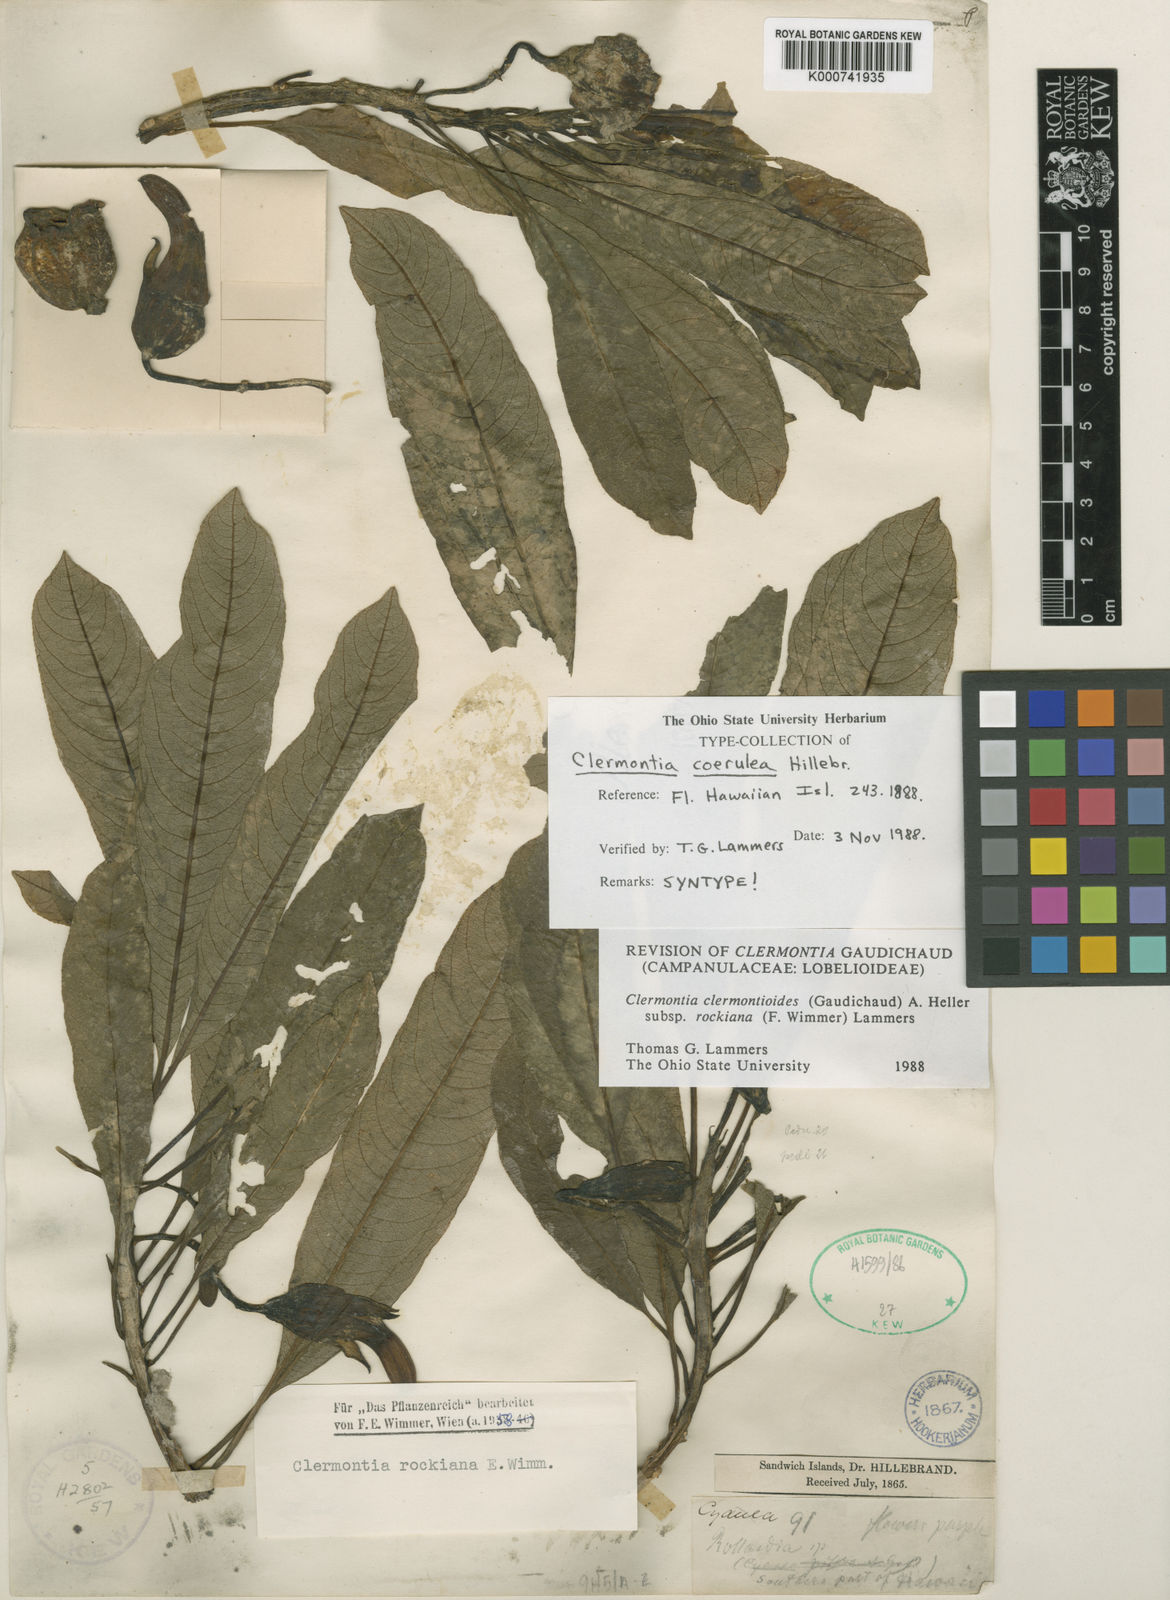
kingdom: Plantae
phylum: Tracheophyta
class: Magnoliopsida
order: Asterales
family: Campanulaceae
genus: Clermontia
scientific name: Clermontia clermontioides
